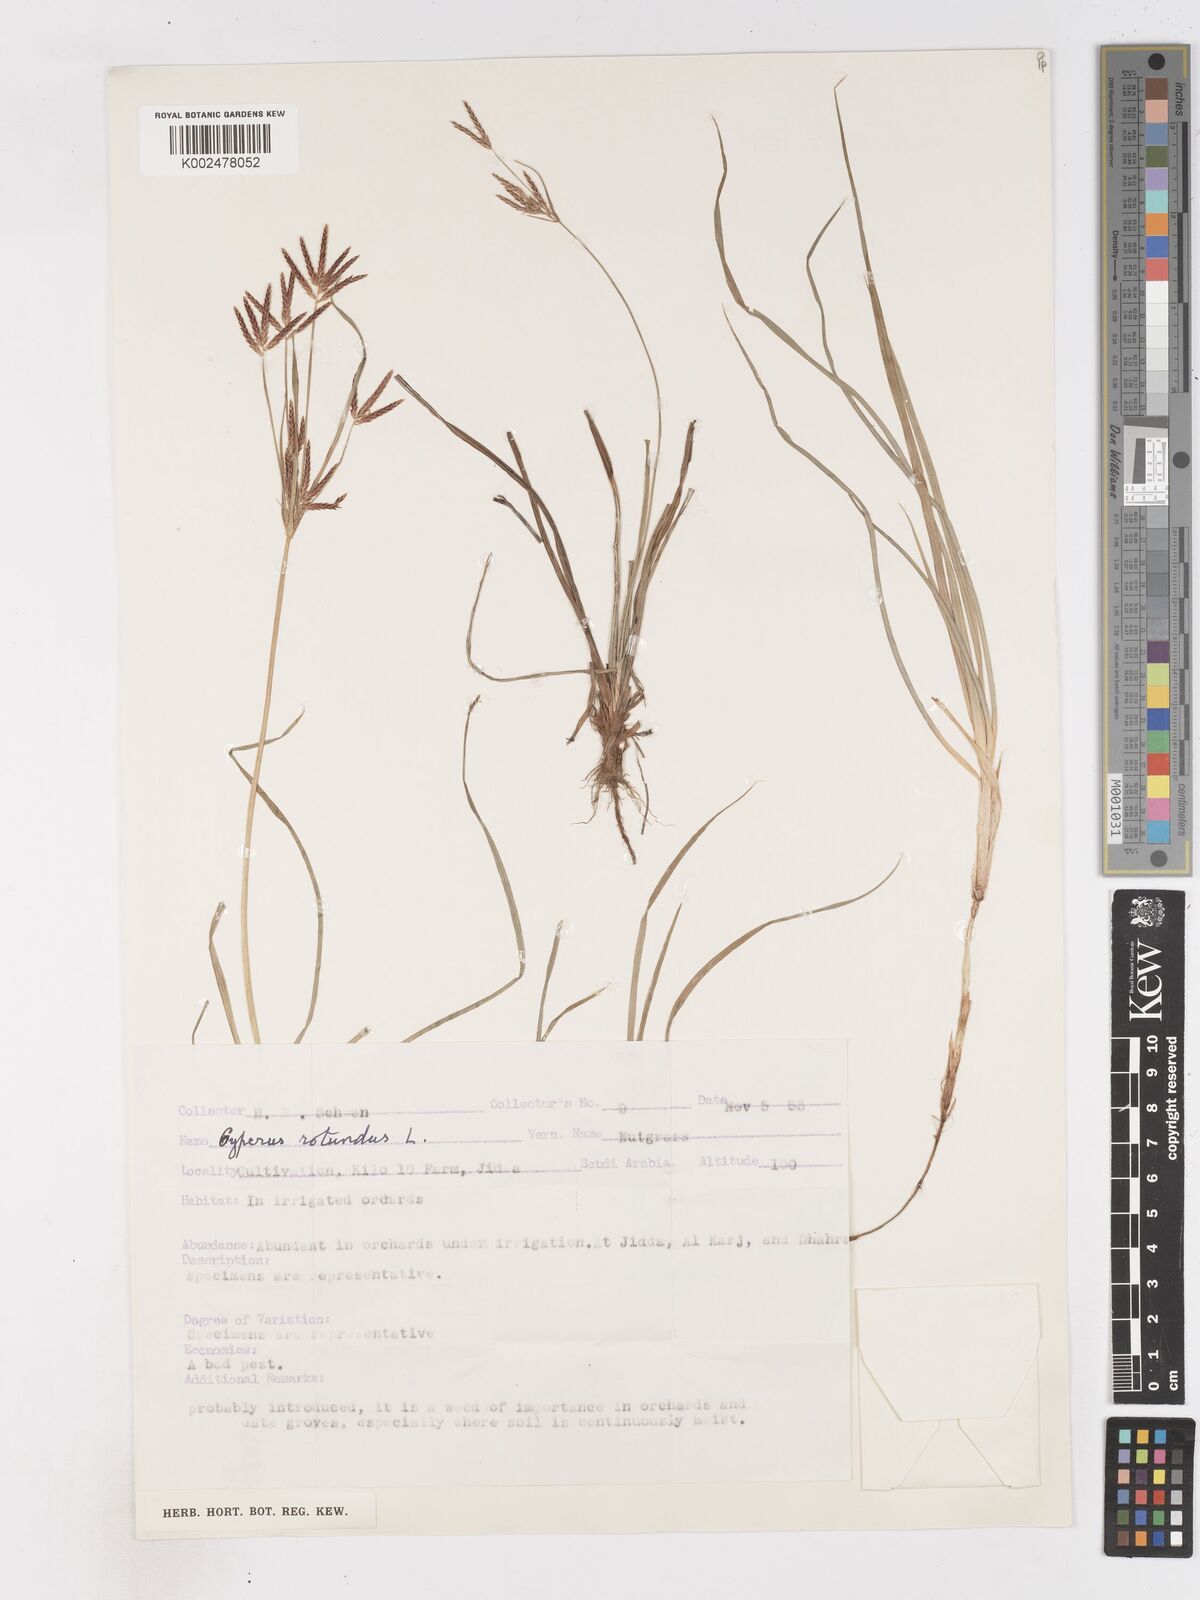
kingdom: Plantae
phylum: Tracheophyta
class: Liliopsida
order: Poales
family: Cyperaceae
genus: Cyperus
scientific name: Cyperus rotundus
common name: Nutgrass
